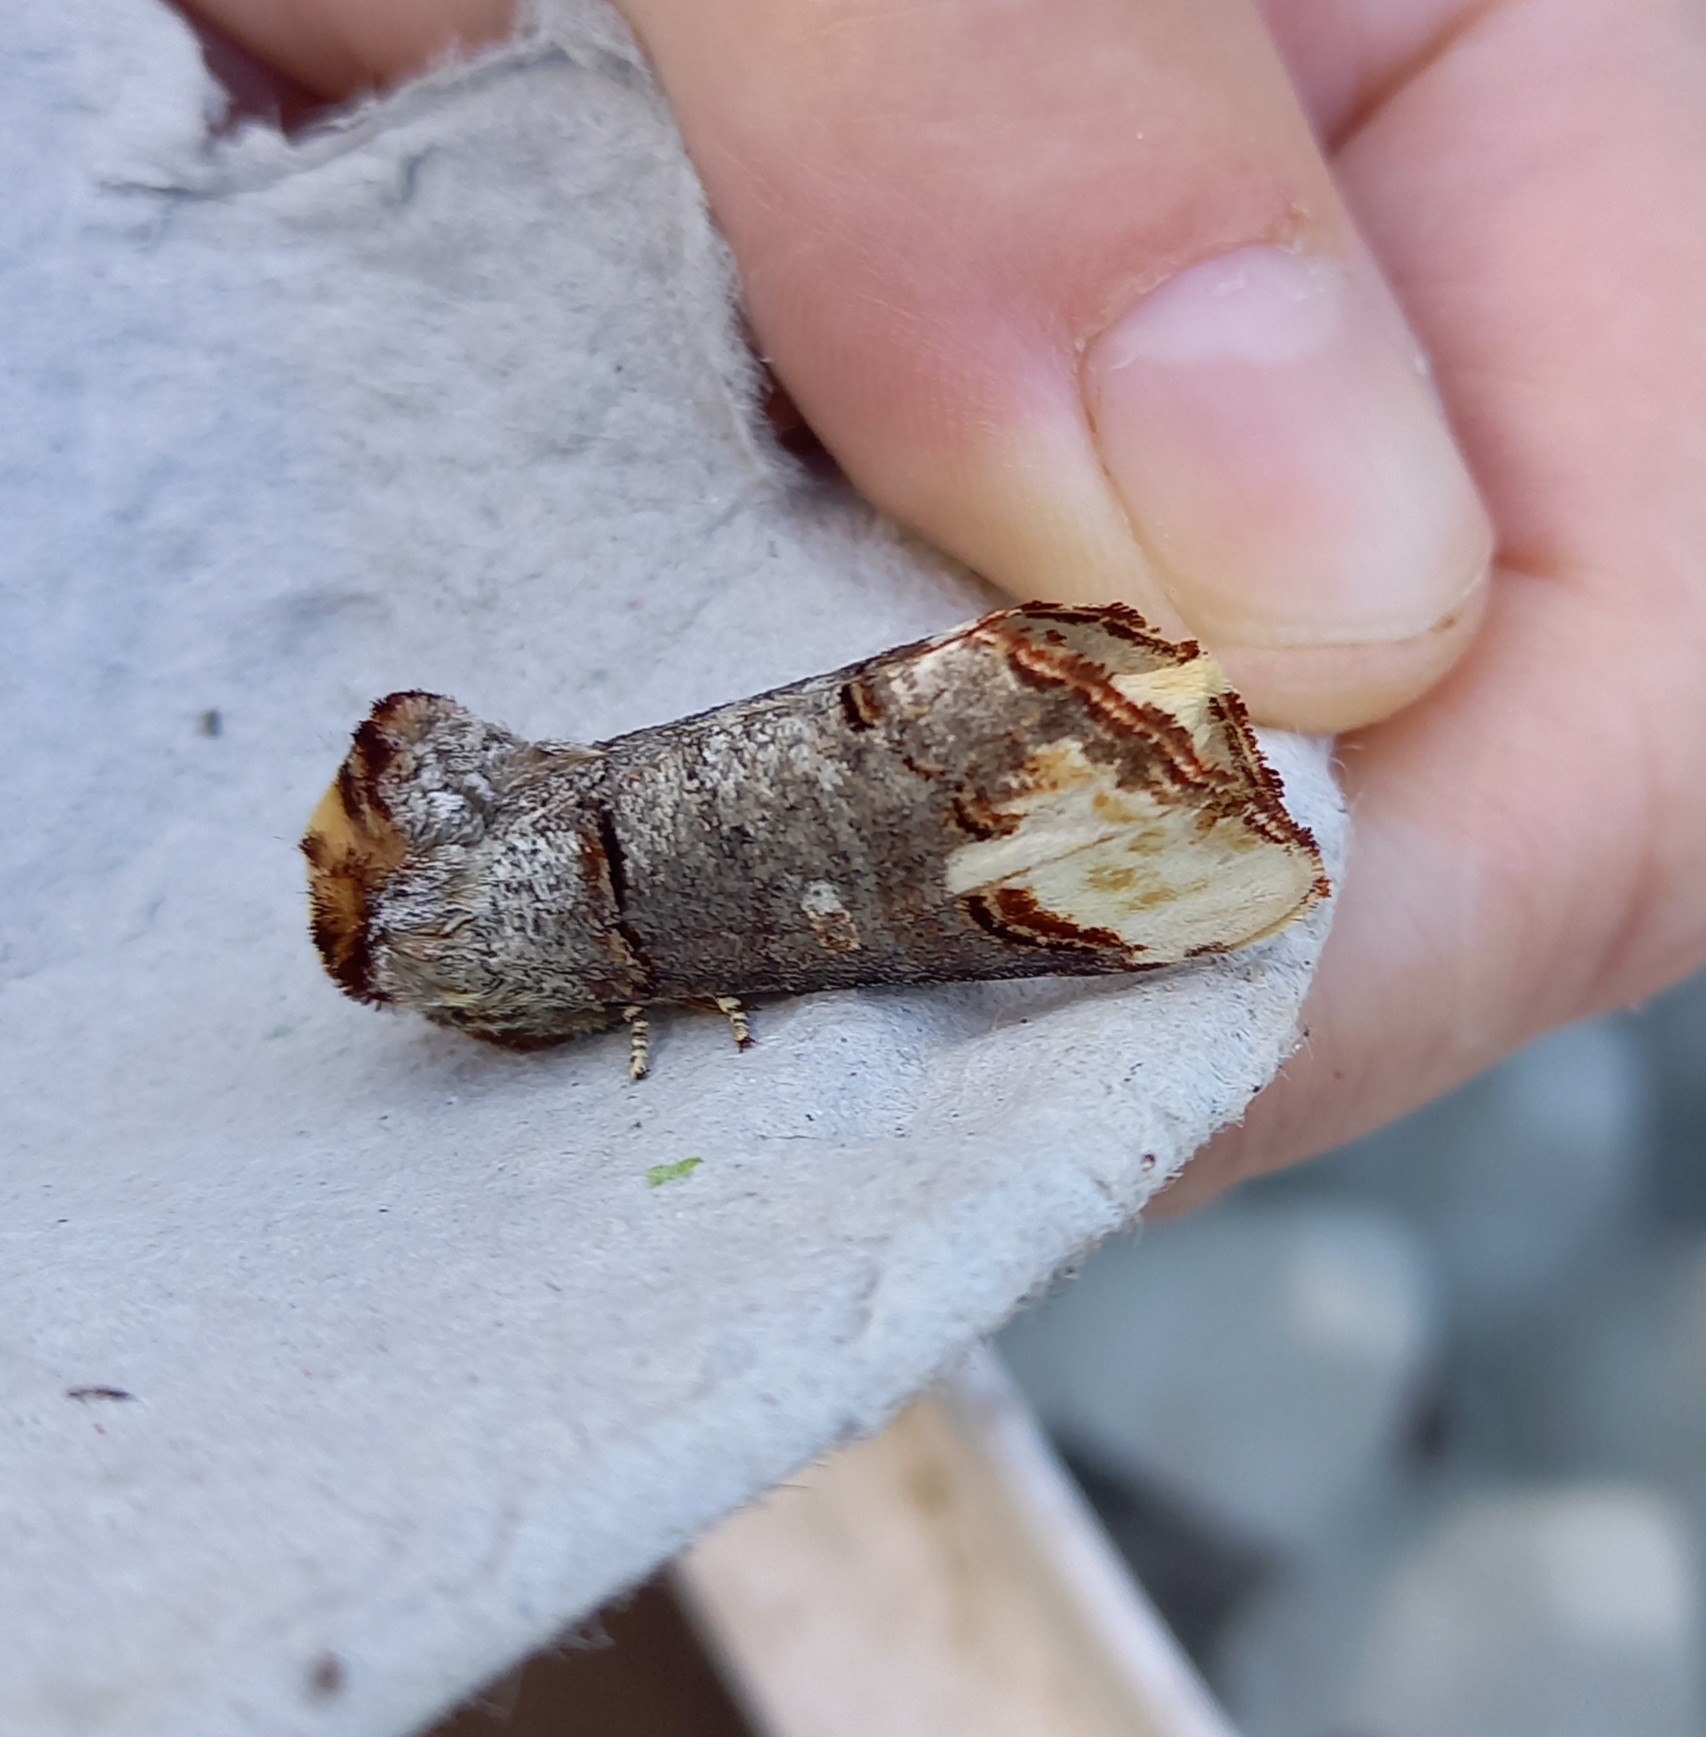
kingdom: Animalia
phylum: Arthropoda
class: Insecta
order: Lepidoptera
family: Notodontidae
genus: Phalera
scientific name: Phalera bucephala
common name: Måneplet
